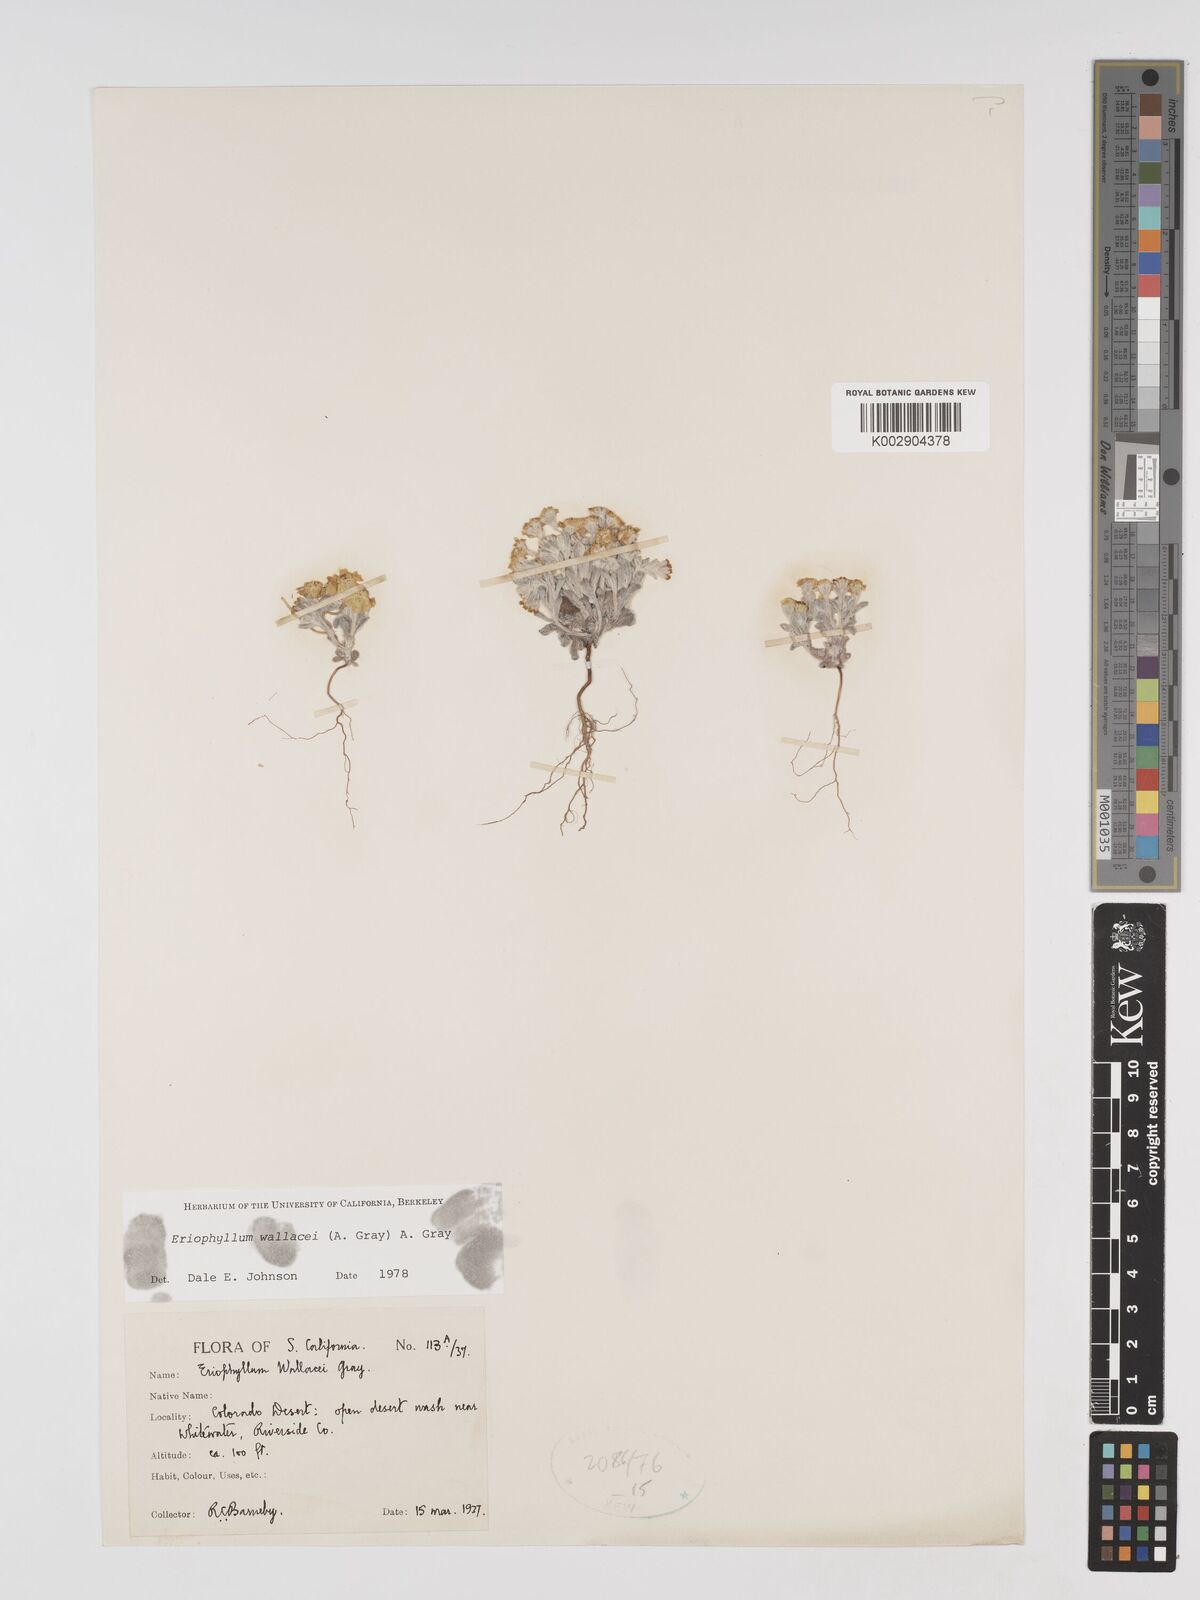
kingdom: Plantae
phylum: Tracheophyta
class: Magnoliopsida
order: Asterales
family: Asteraceae
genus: Eriophyllum
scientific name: Eriophyllum lanosum
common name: White easter-bonnets
